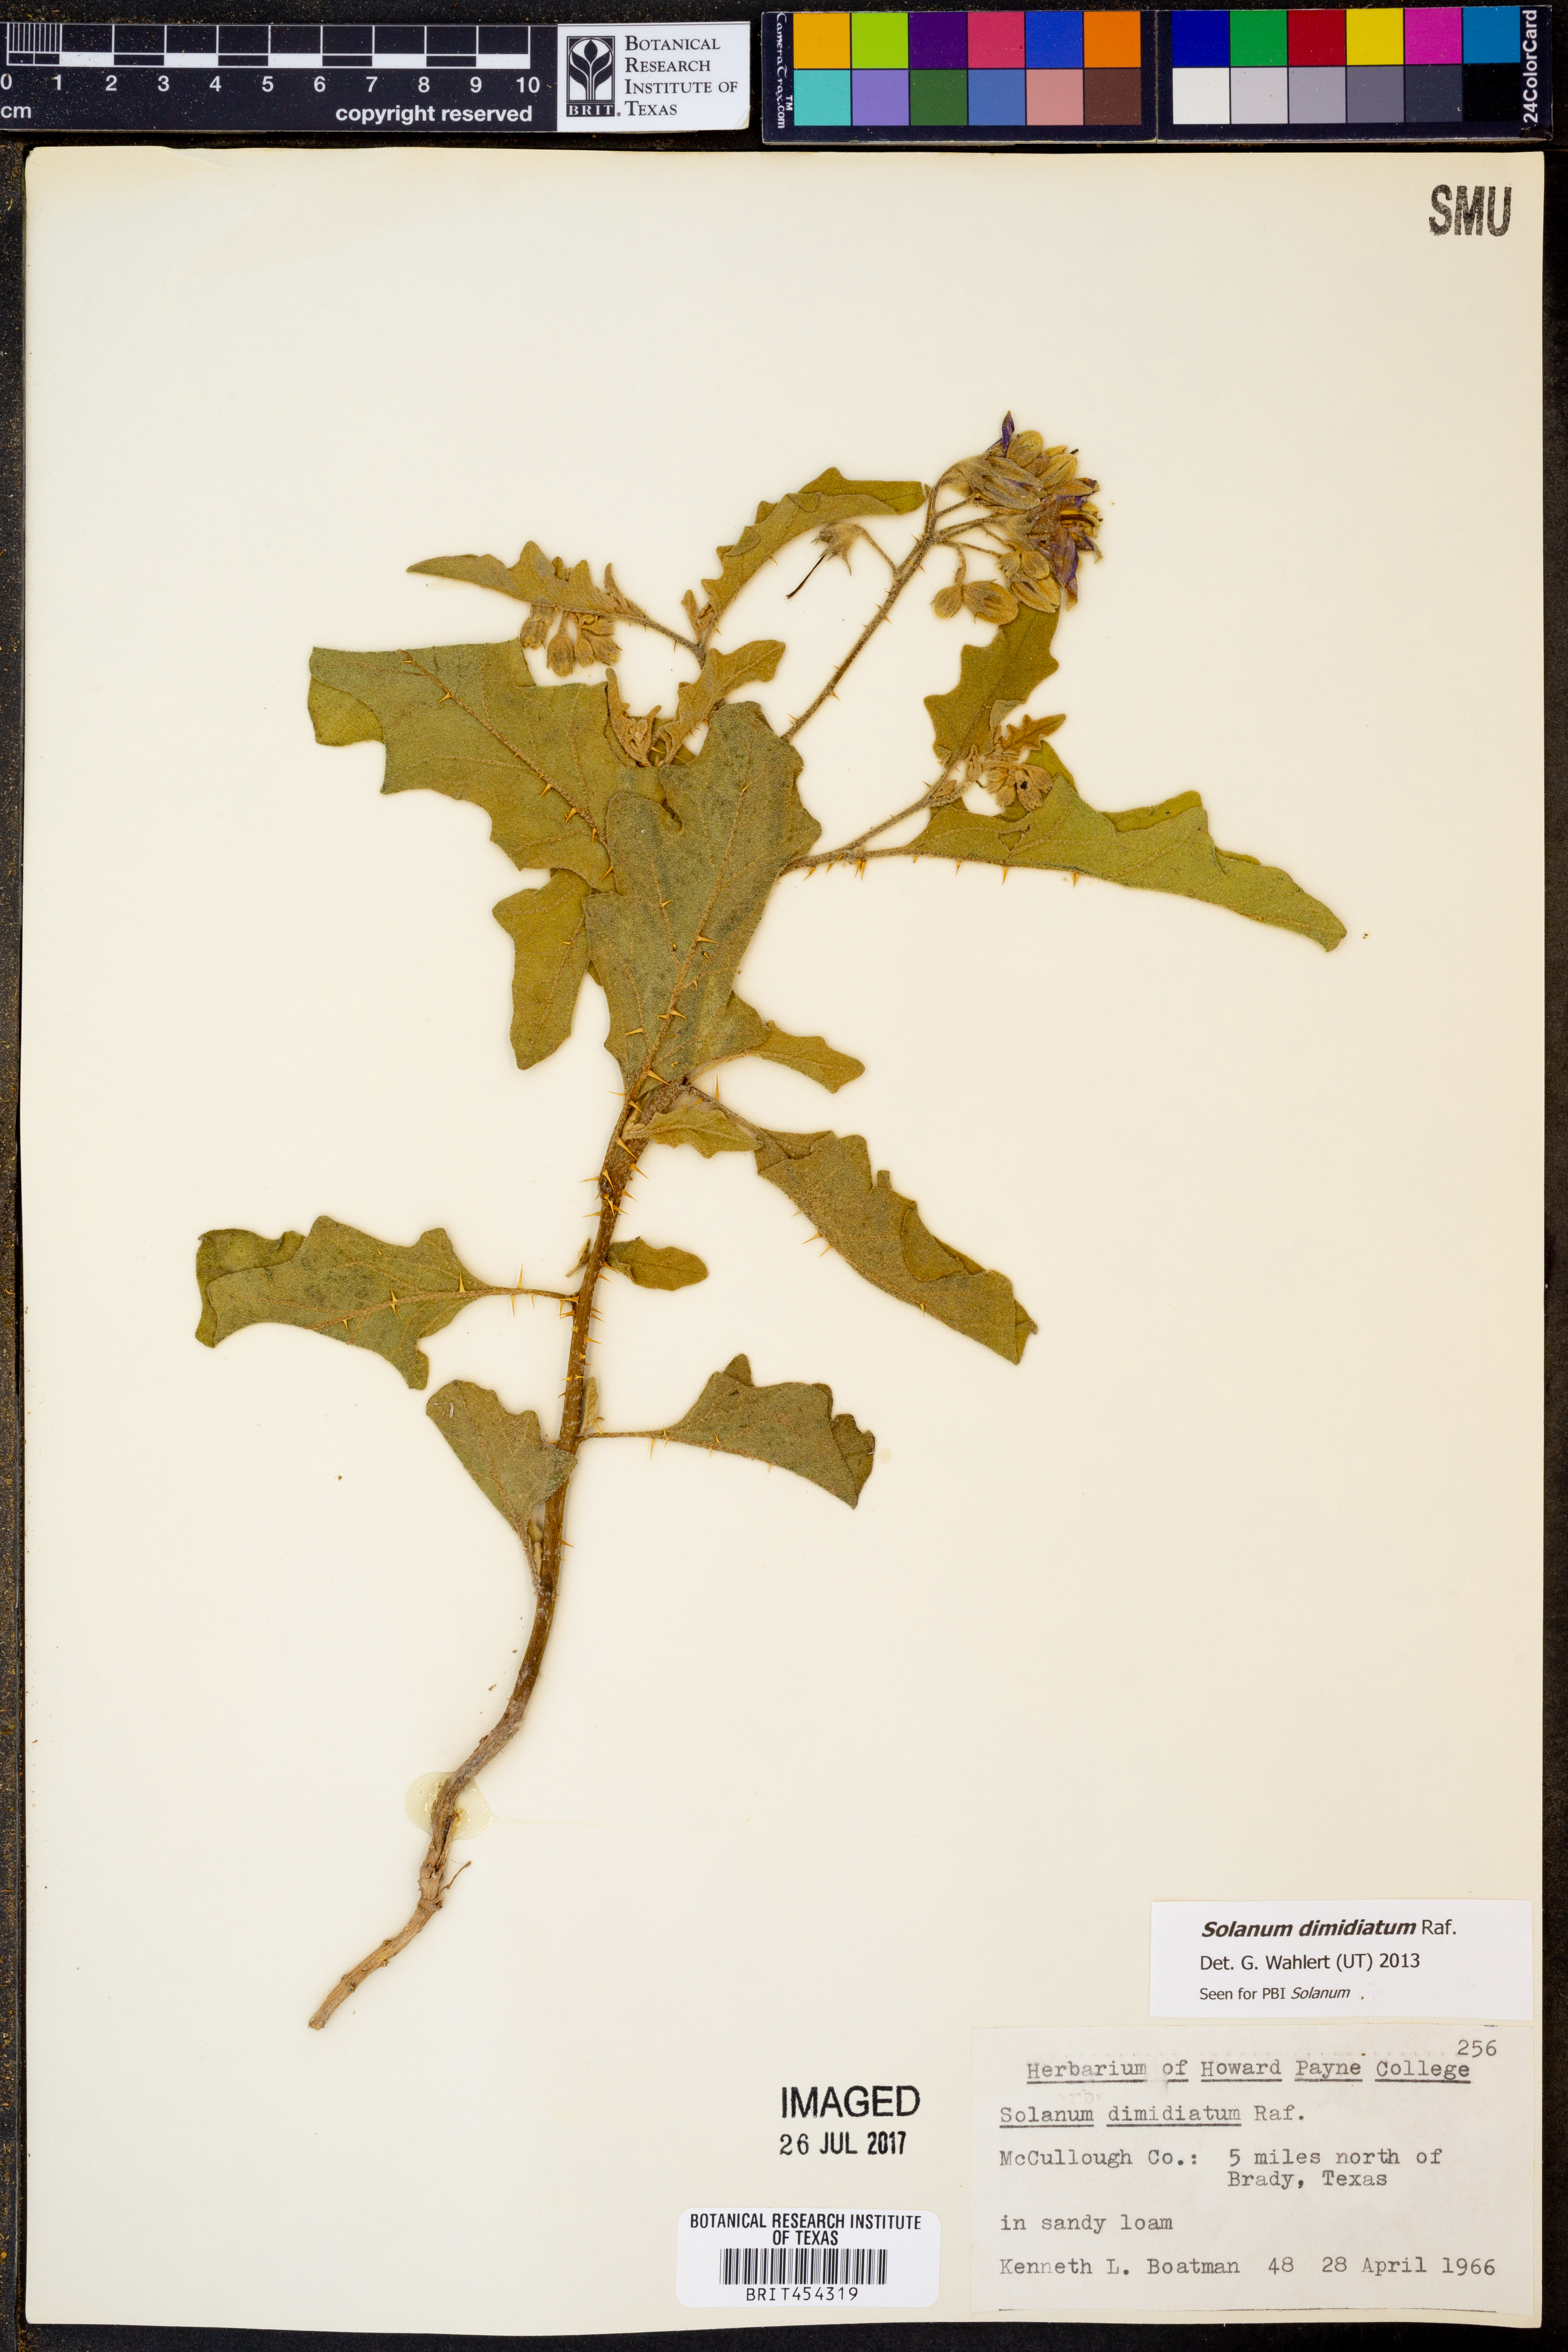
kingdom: Plantae
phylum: Tracheophyta
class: Magnoliopsida
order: Solanales
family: Solanaceae
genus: Solanum
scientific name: Solanum dimidiatum
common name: Carolina horse-nettle
